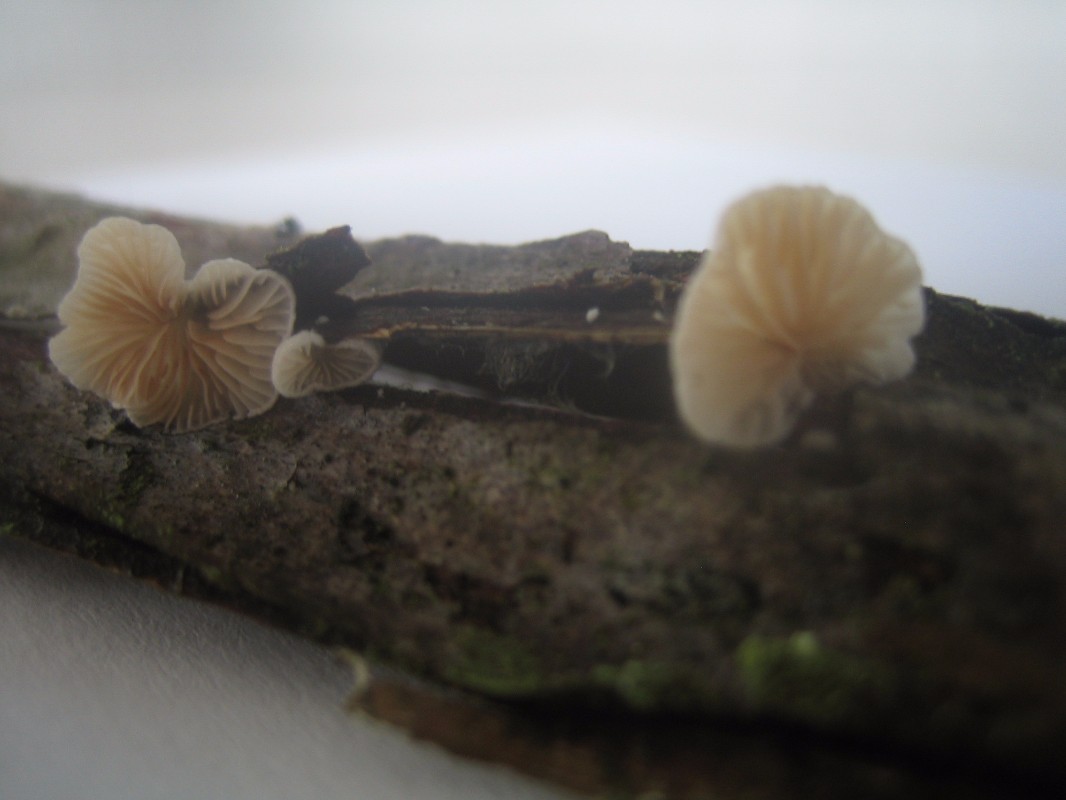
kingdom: Fungi
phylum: Basidiomycota
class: Agaricomycetes
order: Agaricales
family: Crepidotaceae
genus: Crepidotus
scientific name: Crepidotus cesatii
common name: almindelig muslingesvamp
